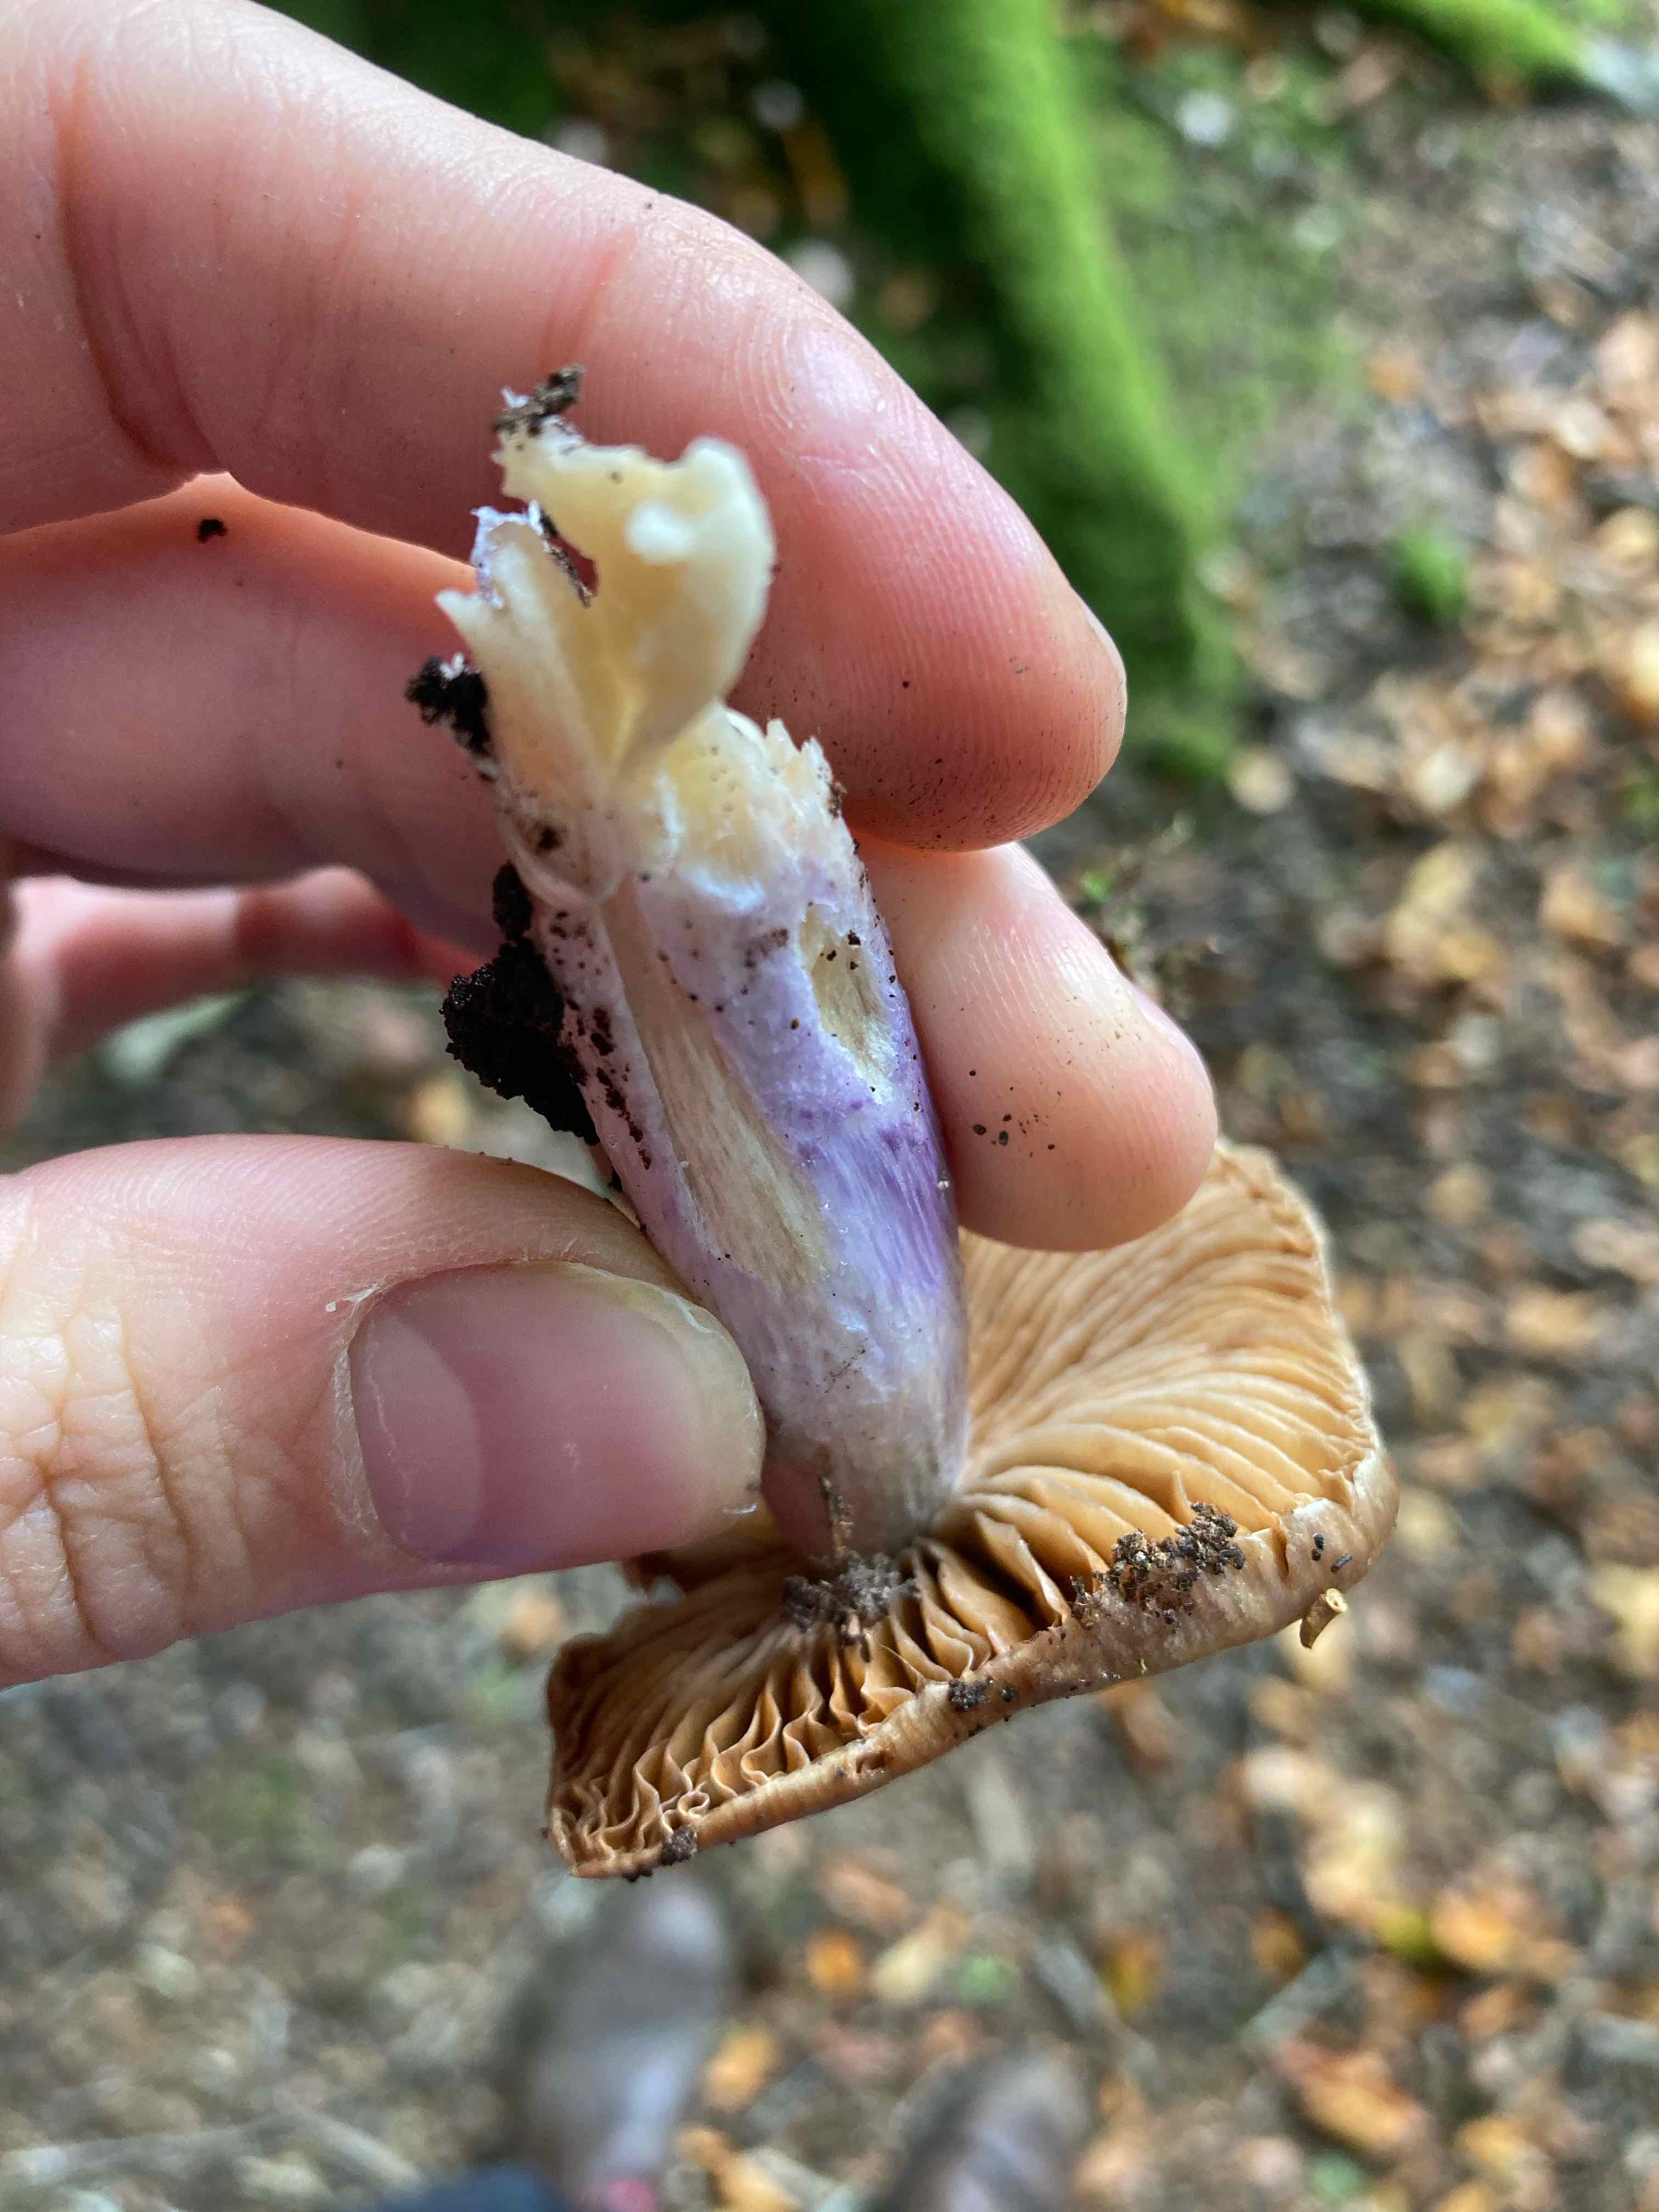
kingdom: Fungi
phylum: Basidiomycota
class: Agaricomycetes
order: Agaricales
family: Cortinariaceae
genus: Cortinarius
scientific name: Cortinarius
